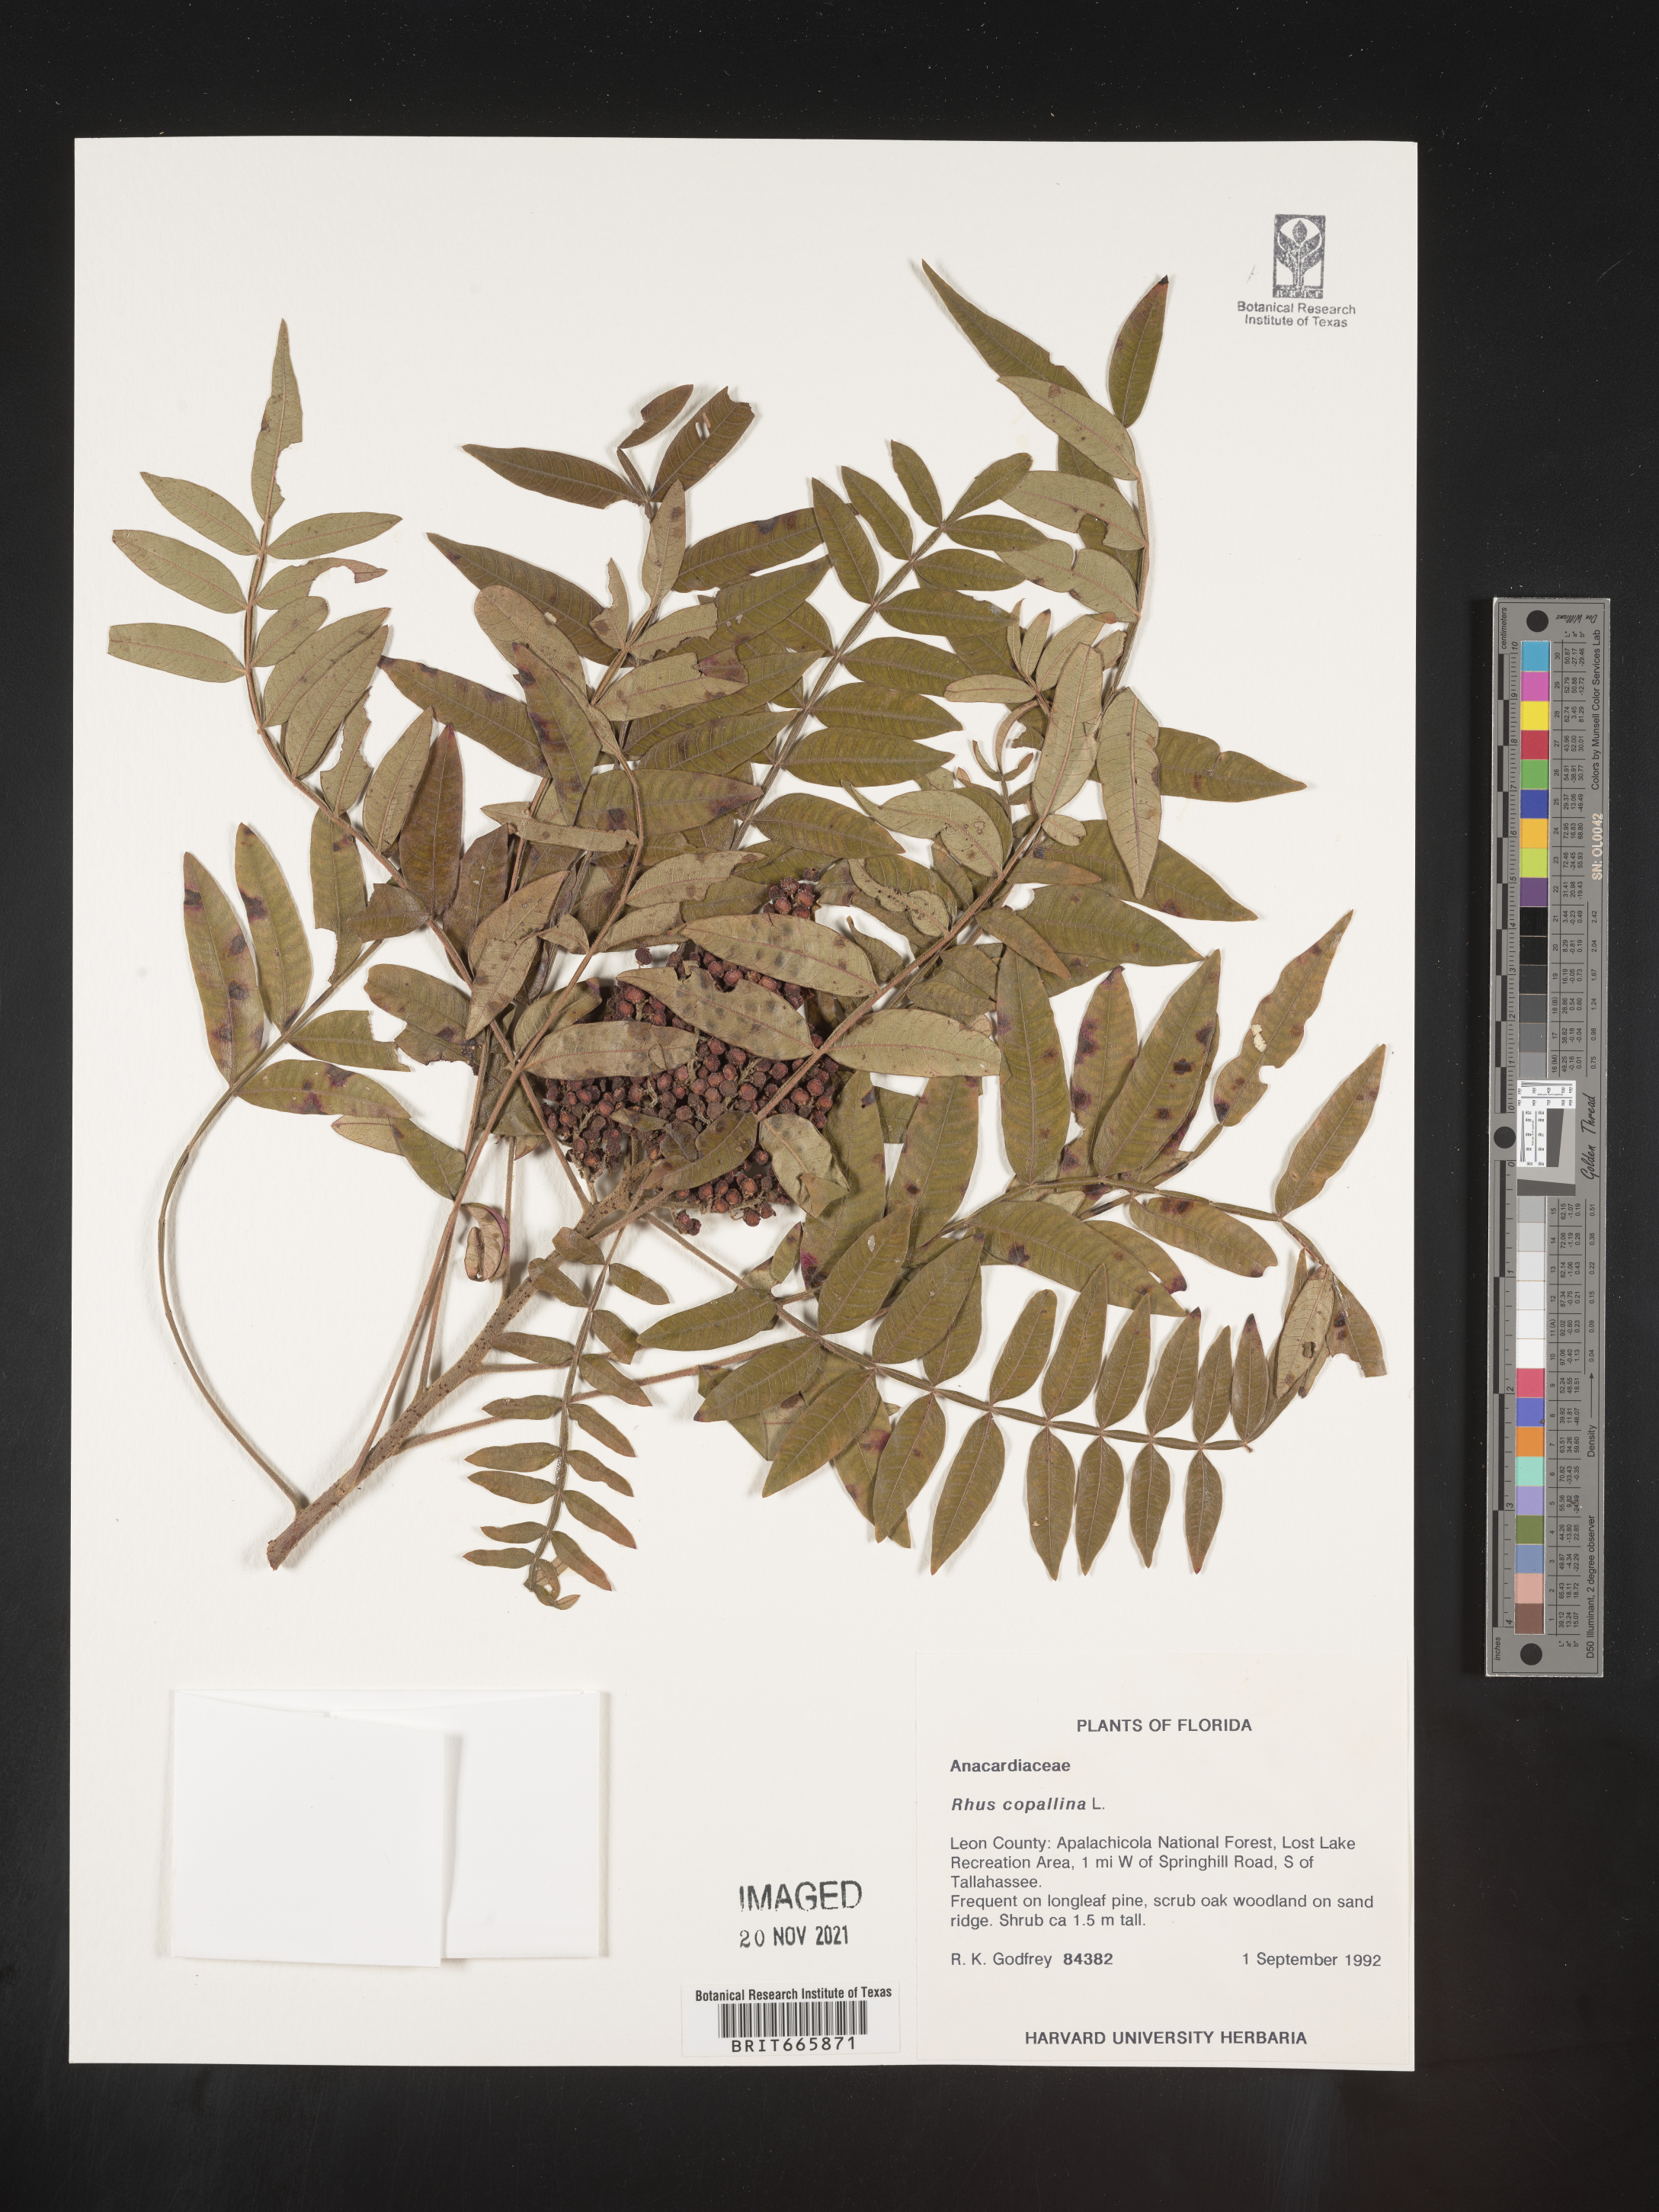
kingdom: Plantae
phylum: Tracheophyta
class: Magnoliopsida
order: Sapindales
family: Anacardiaceae
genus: Rhus
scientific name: Rhus copallina
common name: Shining sumac
